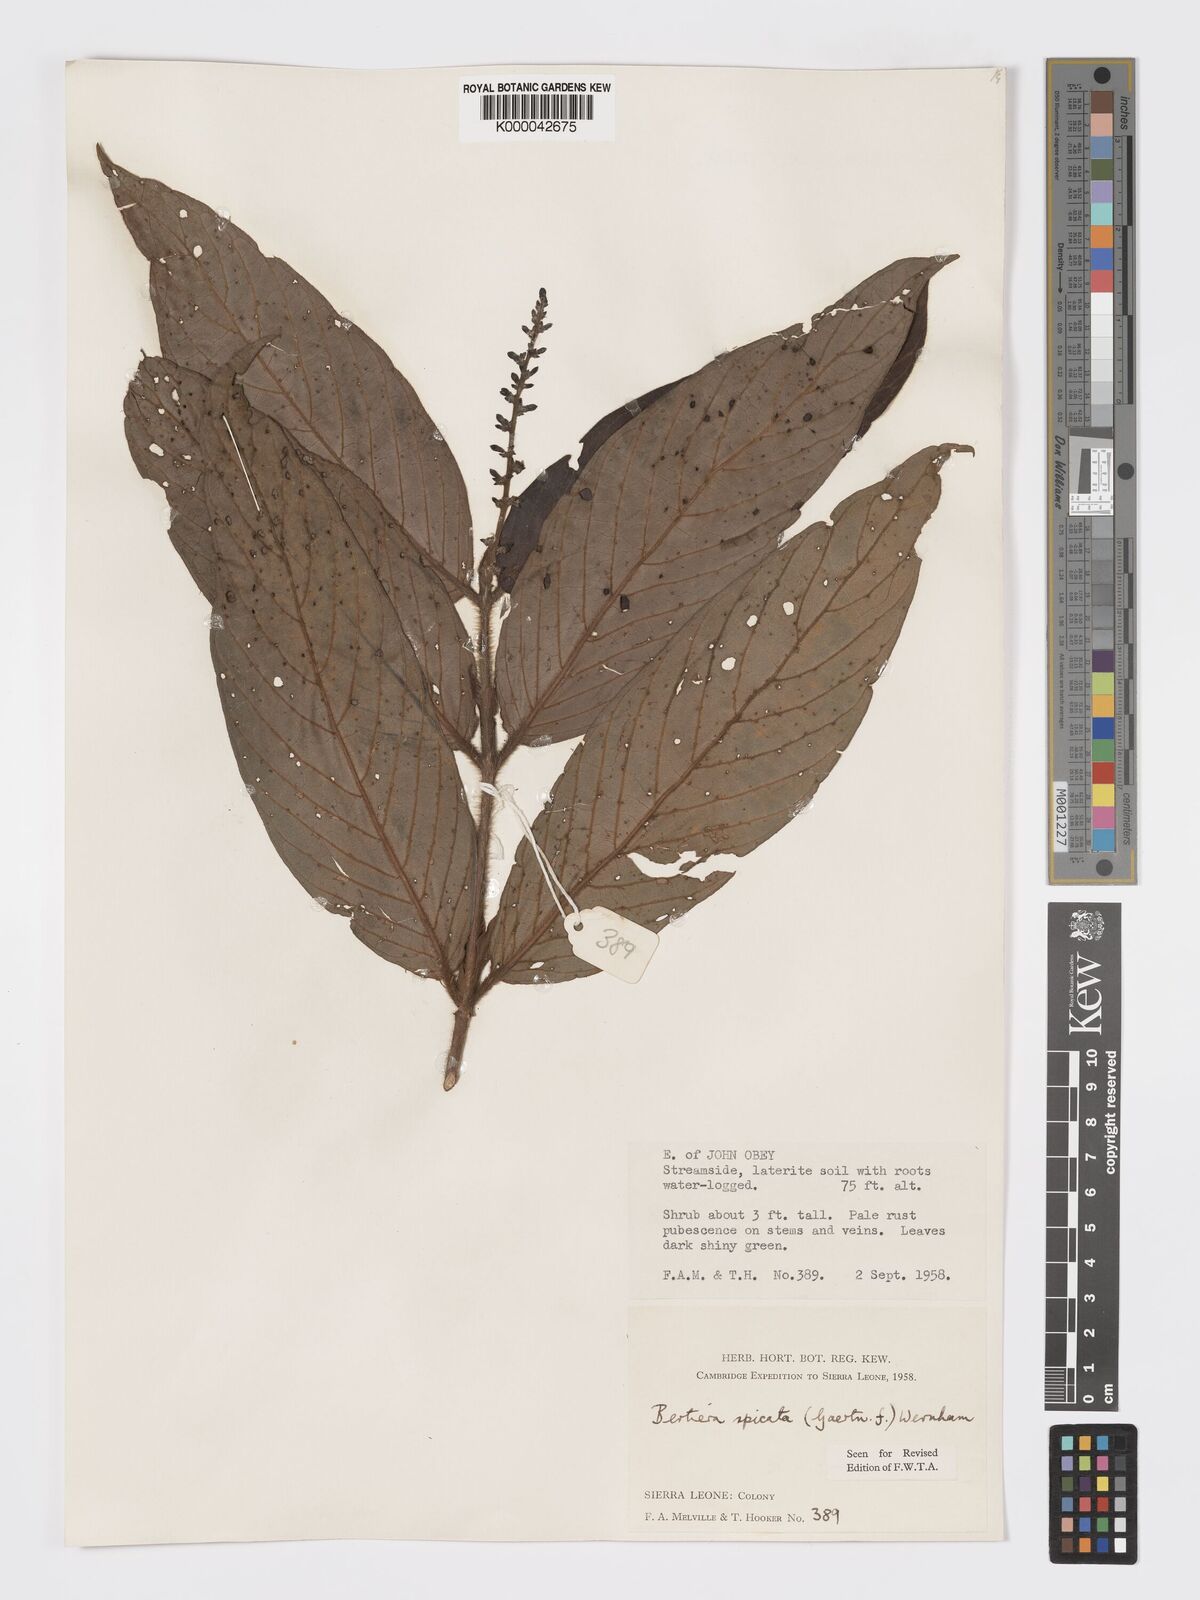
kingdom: Plantae
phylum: Tracheophyta
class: Magnoliopsida
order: Gentianales
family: Rubiaceae
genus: Bertiera
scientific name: Bertiera
